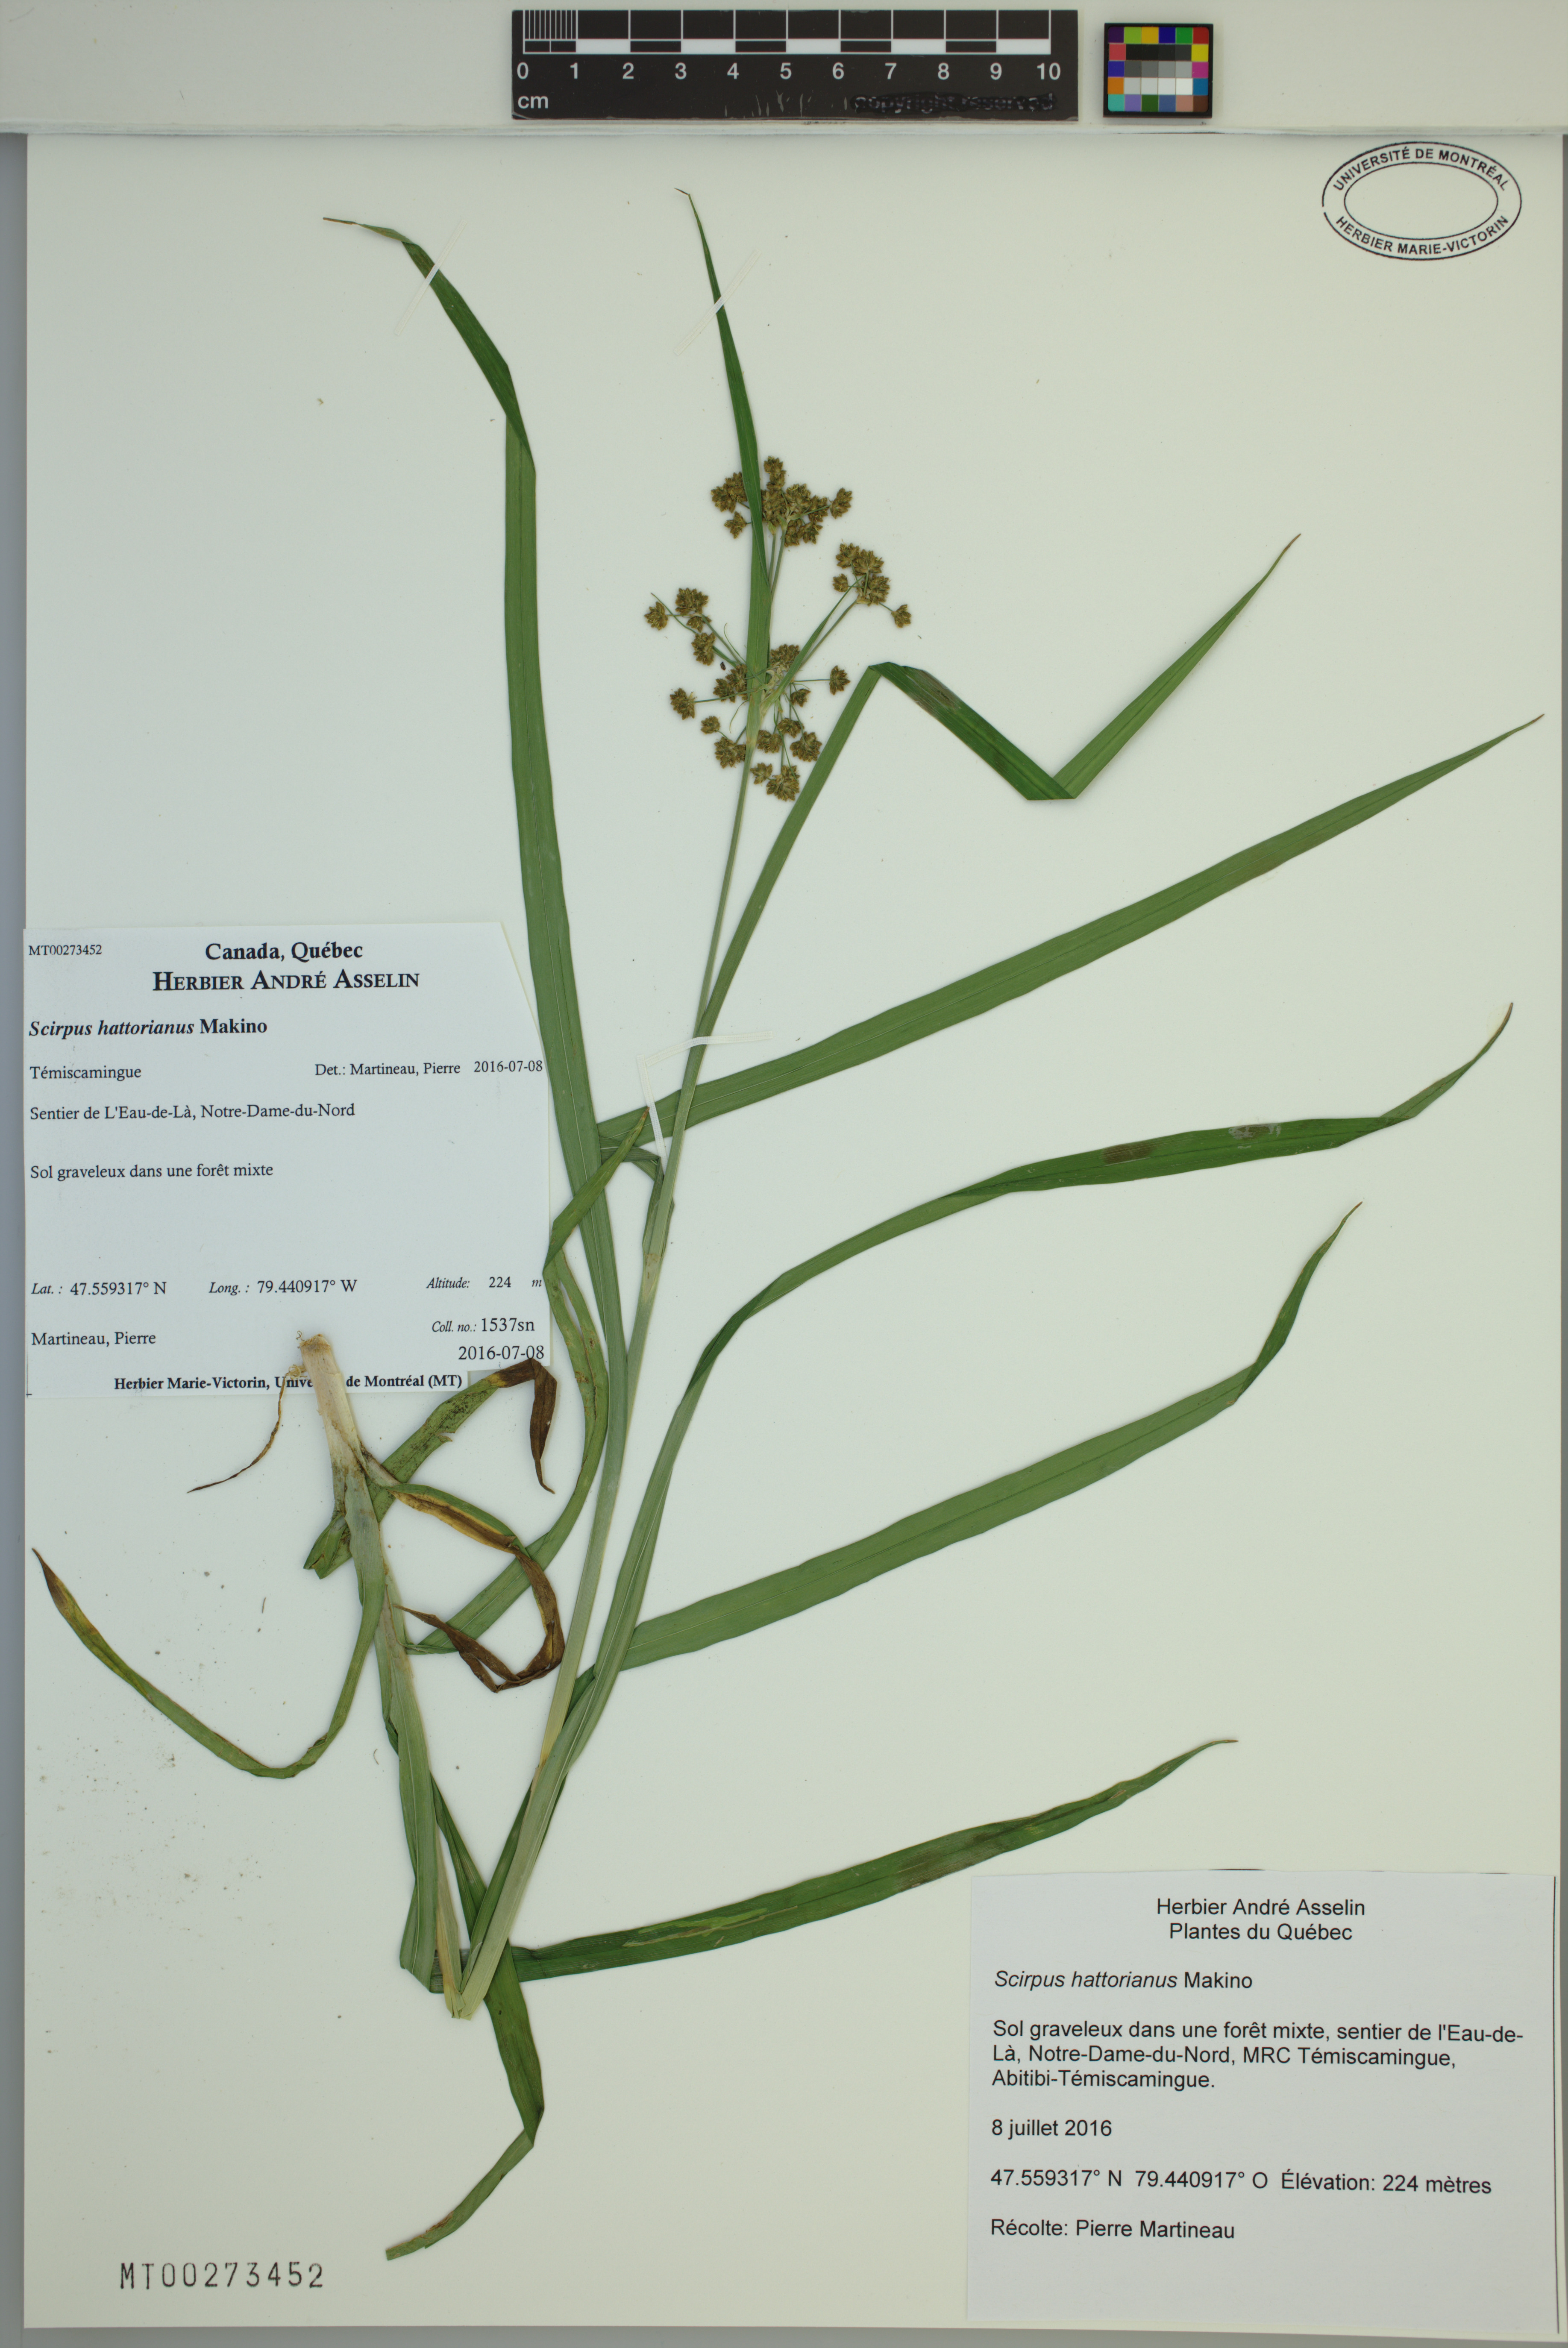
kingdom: Plantae
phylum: Tracheophyta
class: Liliopsida
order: Poales
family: Cyperaceae
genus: Scirpus
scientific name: Scirpus hattorianus
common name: Early dark-green bulrush
